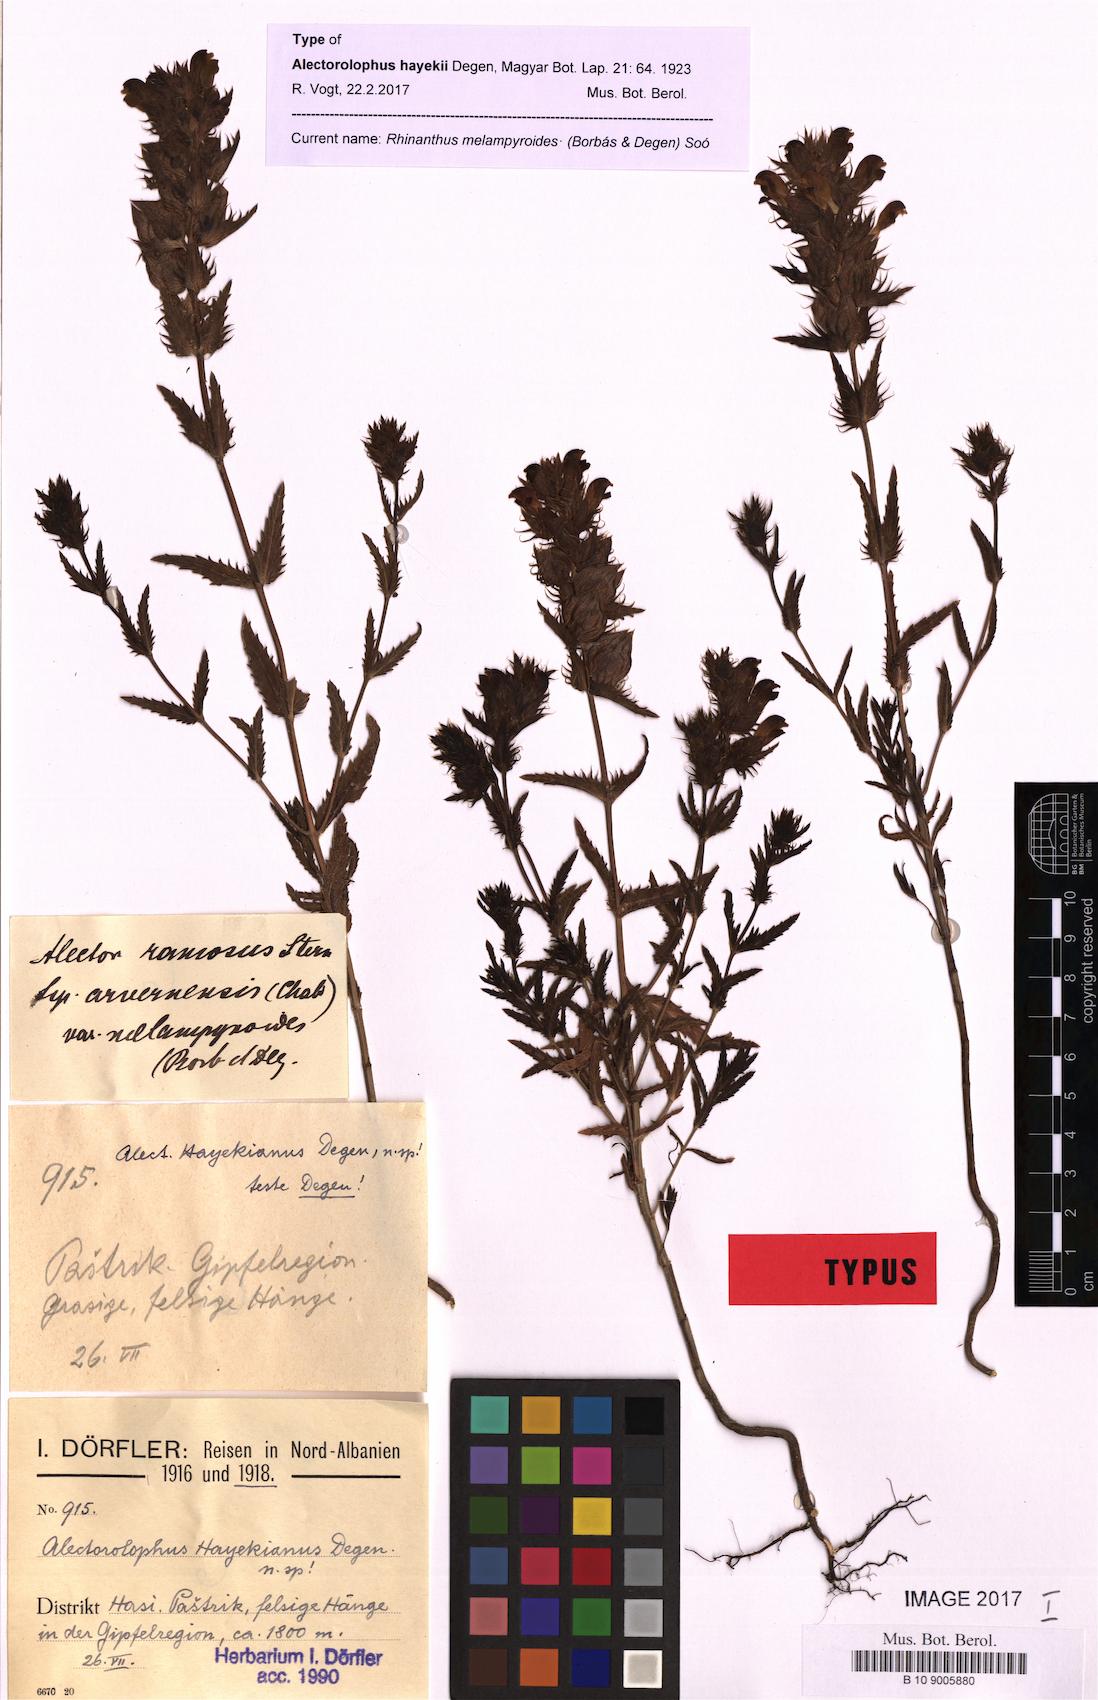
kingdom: Plantae
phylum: Tracheophyta
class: Magnoliopsida
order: Lamiales
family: Orobanchaceae
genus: Rhinanthus
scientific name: Rhinanthus melampyroides
